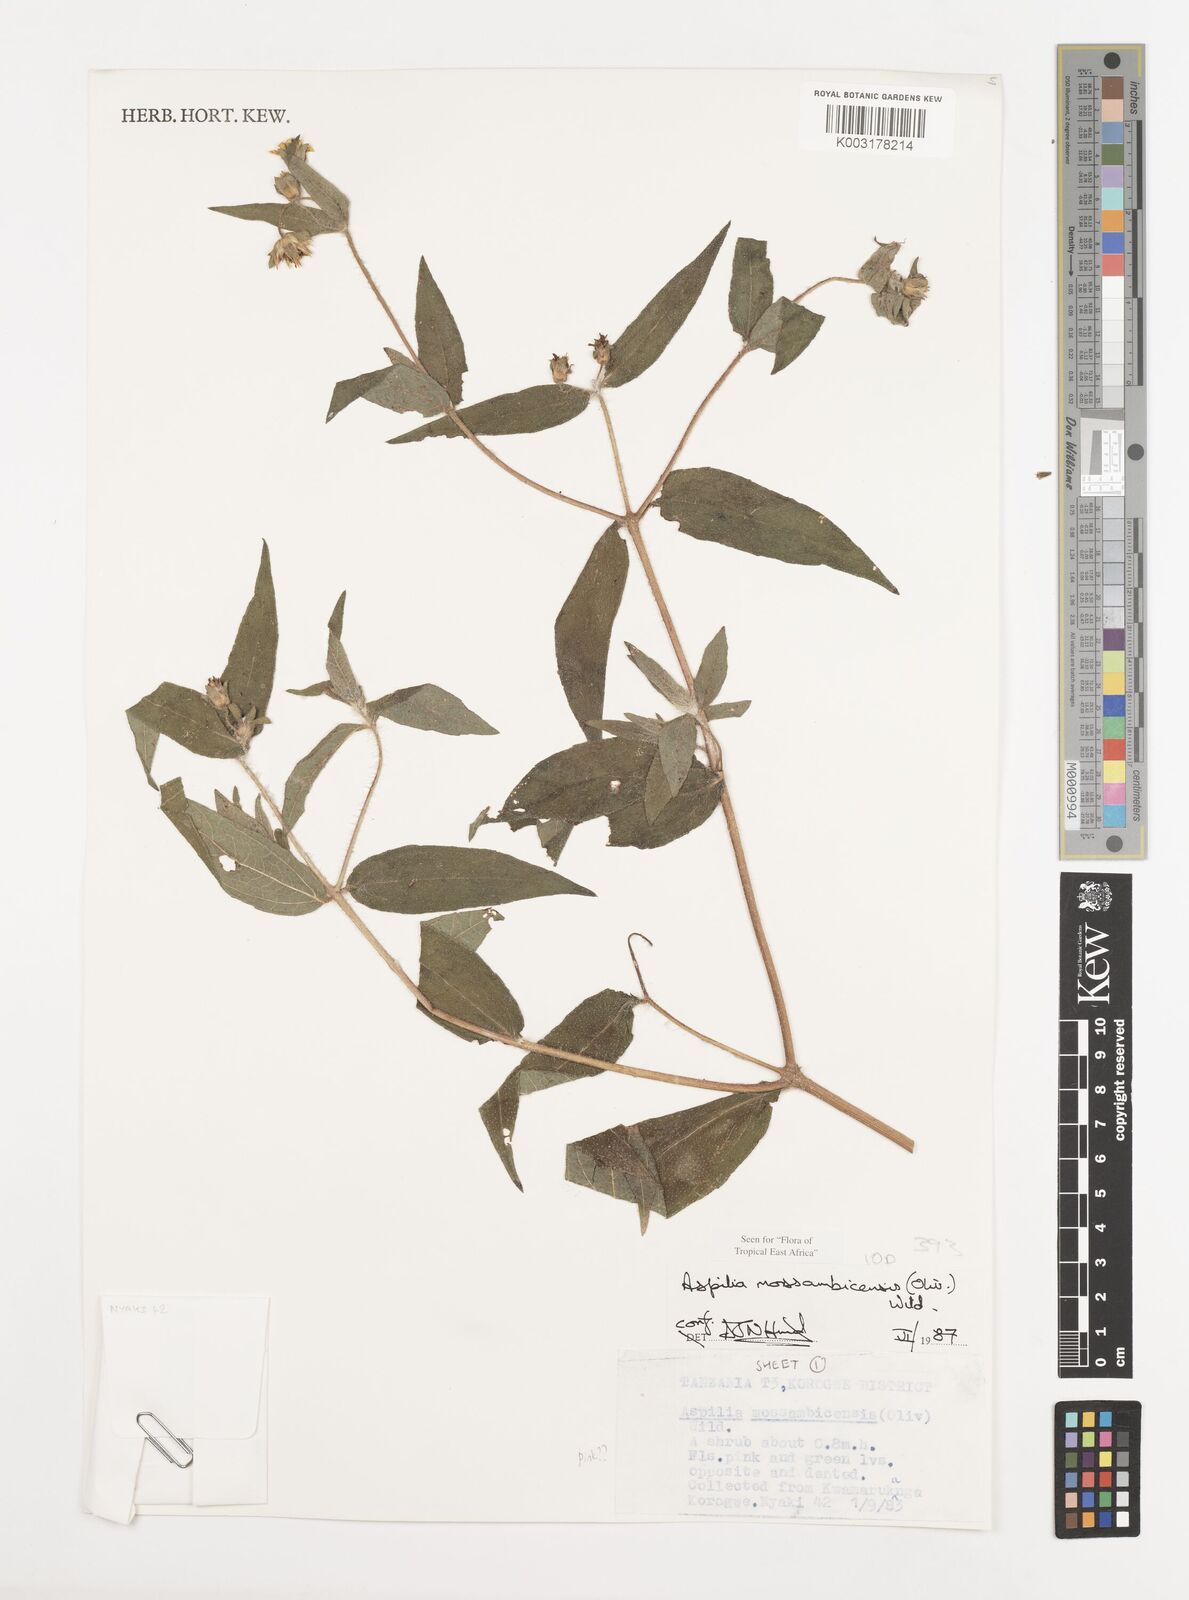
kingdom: Plantae
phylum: Tracheophyta
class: Magnoliopsida
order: Asterales
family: Asteraceae
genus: Aspilia
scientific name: Aspilia mossambicensis
